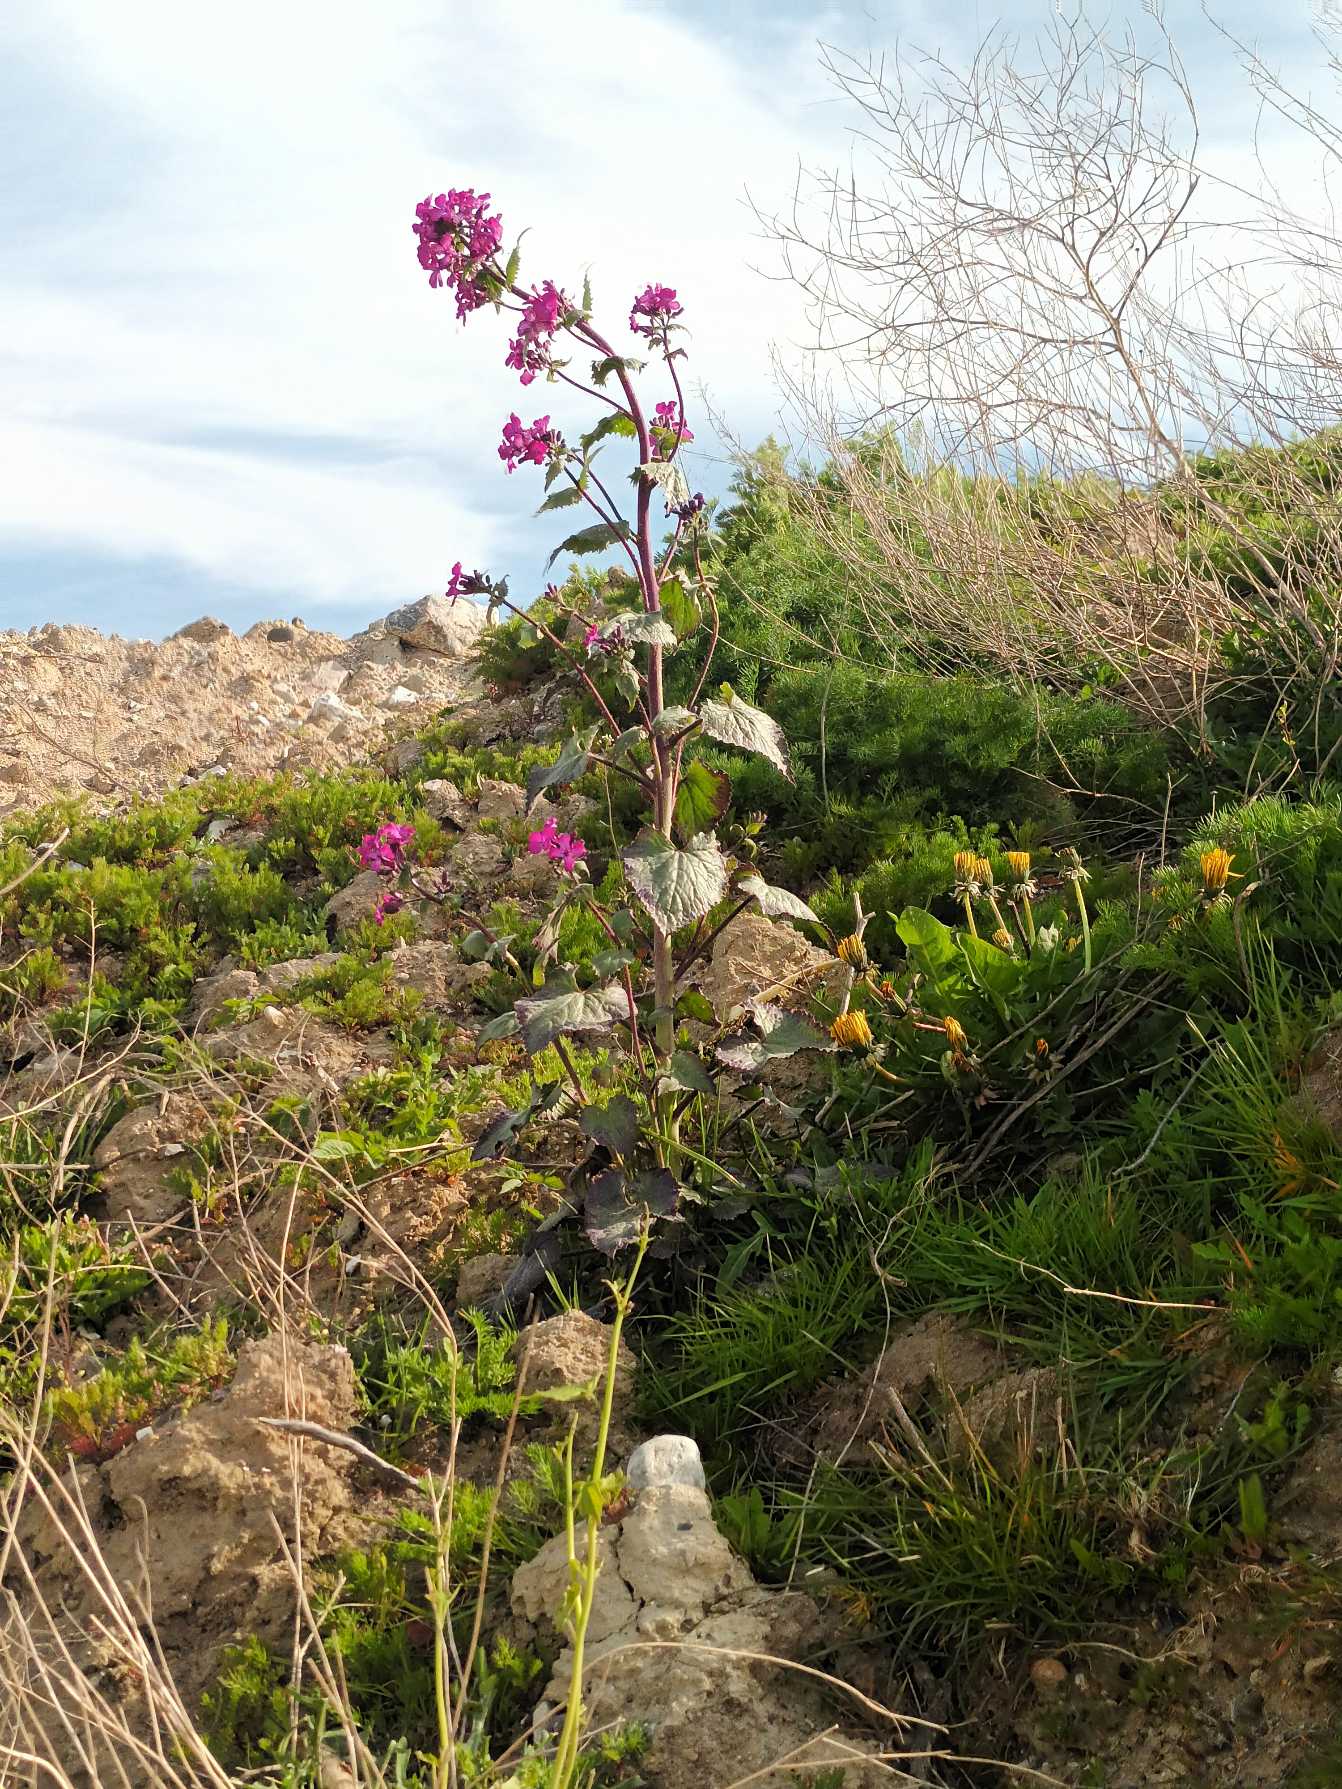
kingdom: Plantae
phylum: Tracheophyta
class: Magnoliopsida
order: Brassicales
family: Brassicaceae
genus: Lunaria
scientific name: Lunaria annua
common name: Judaspenge
